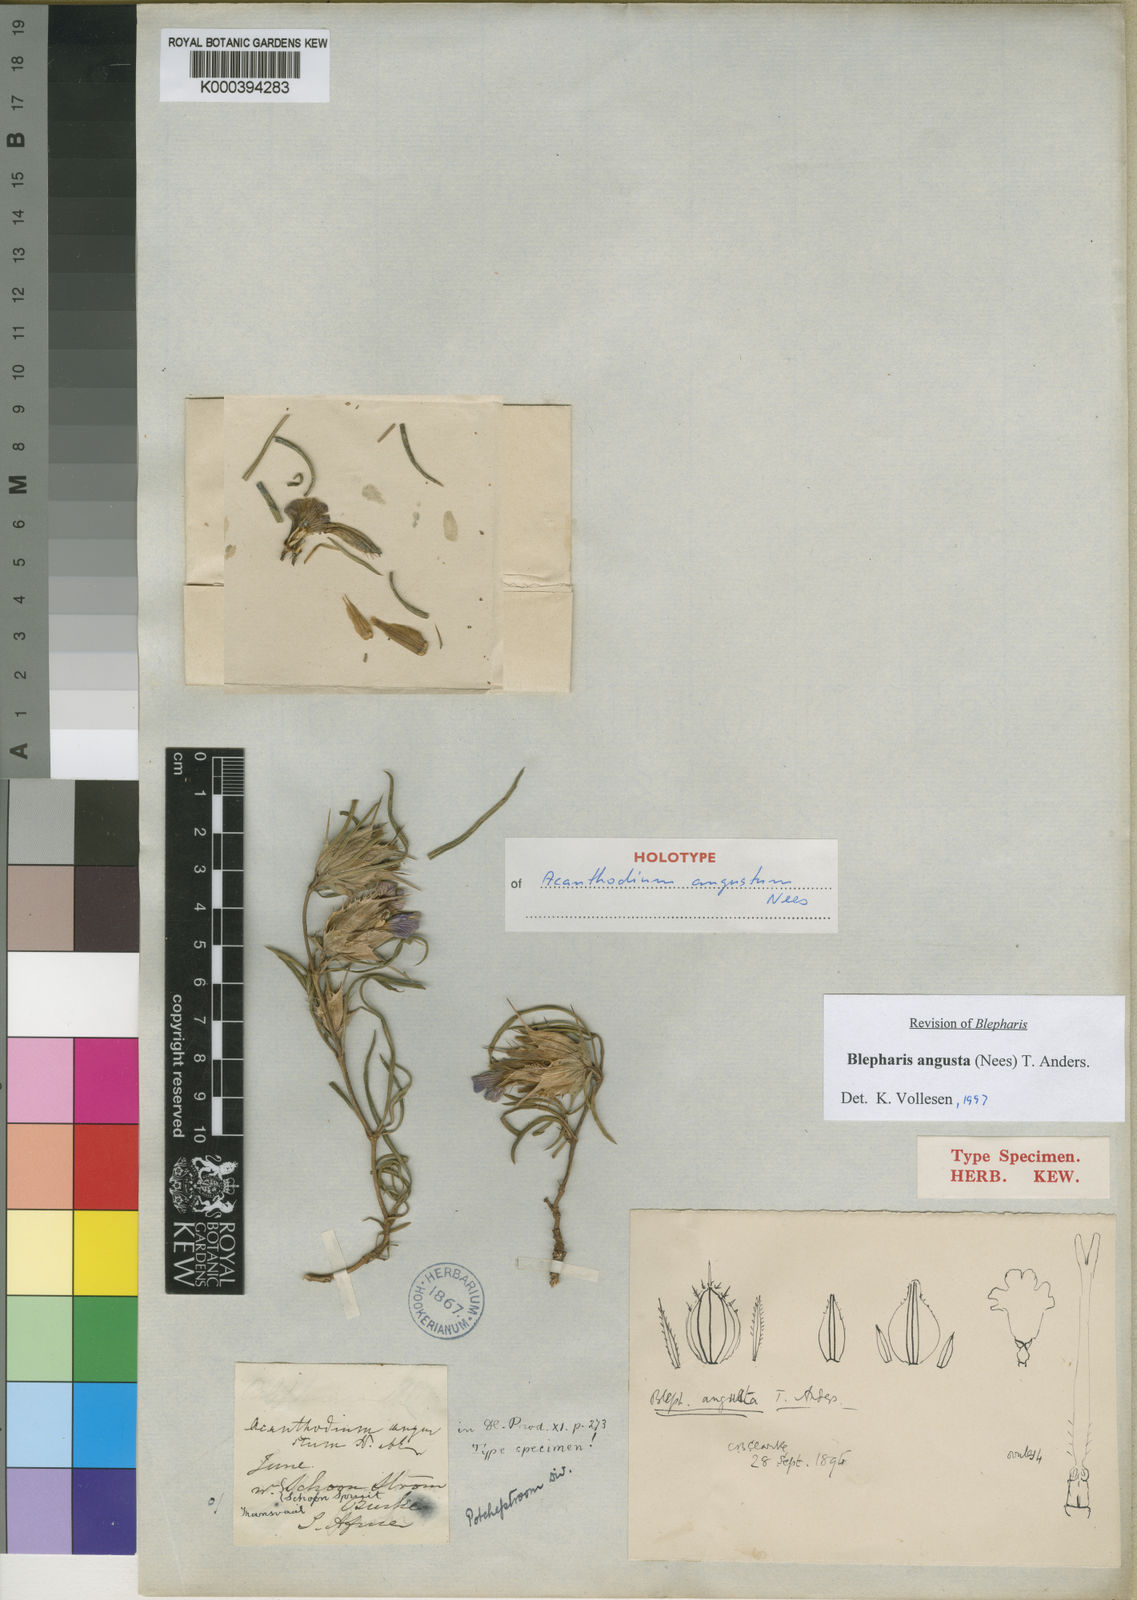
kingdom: Plantae
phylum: Tracheophyta
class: Magnoliopsida
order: Lamiales
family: Acanthaceae
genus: Blepharis
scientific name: Blepharis angusta
